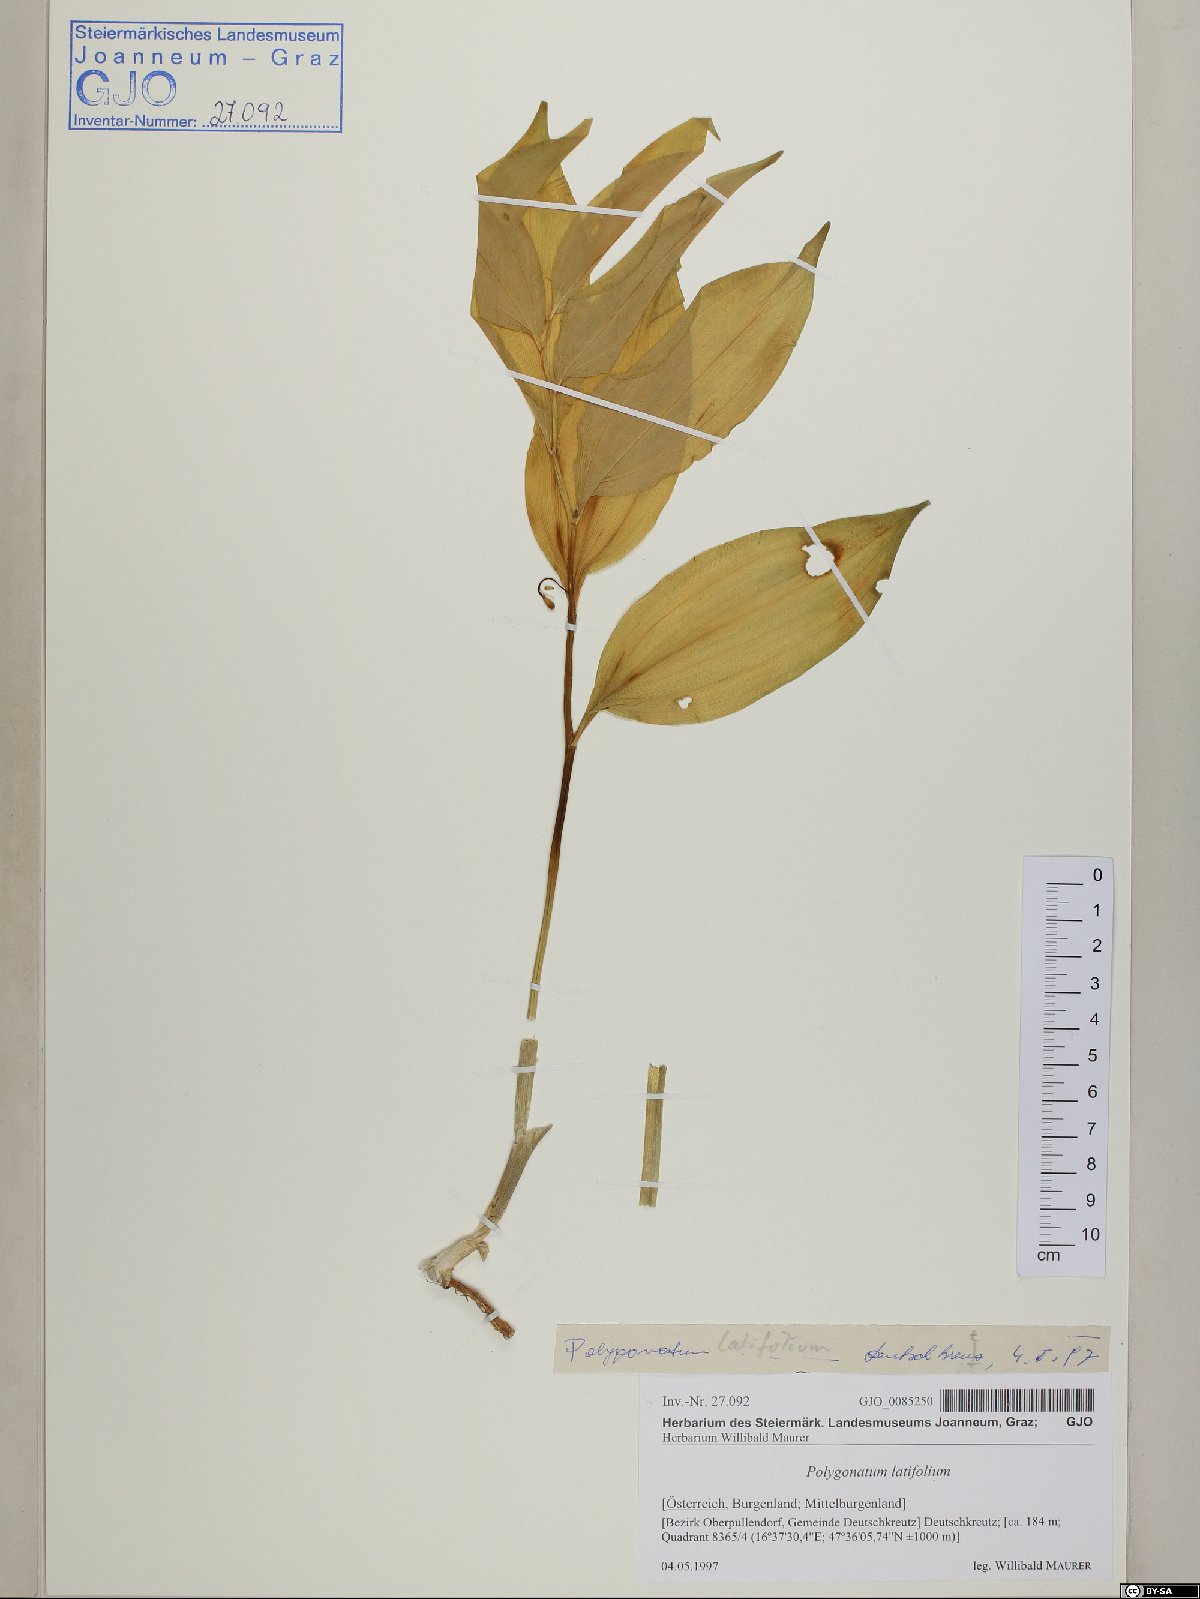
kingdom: Plantae
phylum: Tracheophyta
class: Liliopsida
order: Asparagales
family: Asparagaceae
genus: Polygonatum
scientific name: Polygonatum latifolium
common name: Broadleaf solomon's seal
